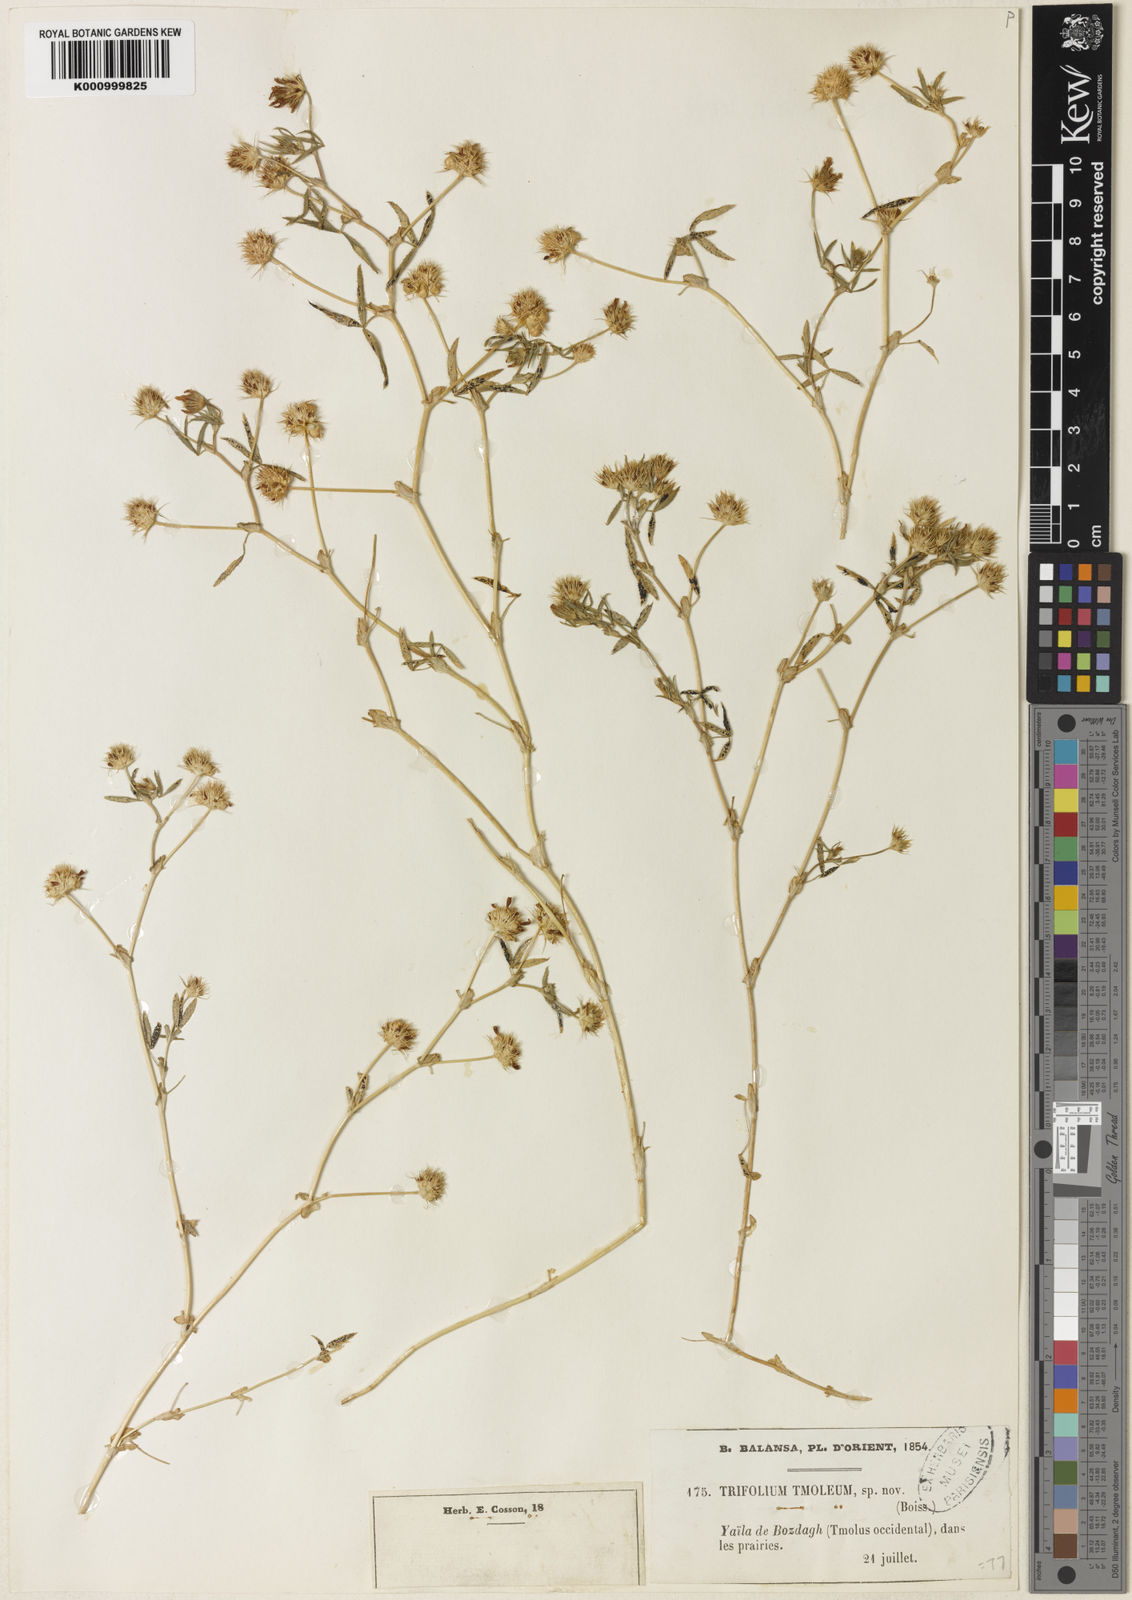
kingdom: Plantae
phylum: Tracheophyta
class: Magnoliopsida
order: Fabales
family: Fabaceae
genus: Trifolium
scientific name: Trifolium glanduliferum
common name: Glandular clover
